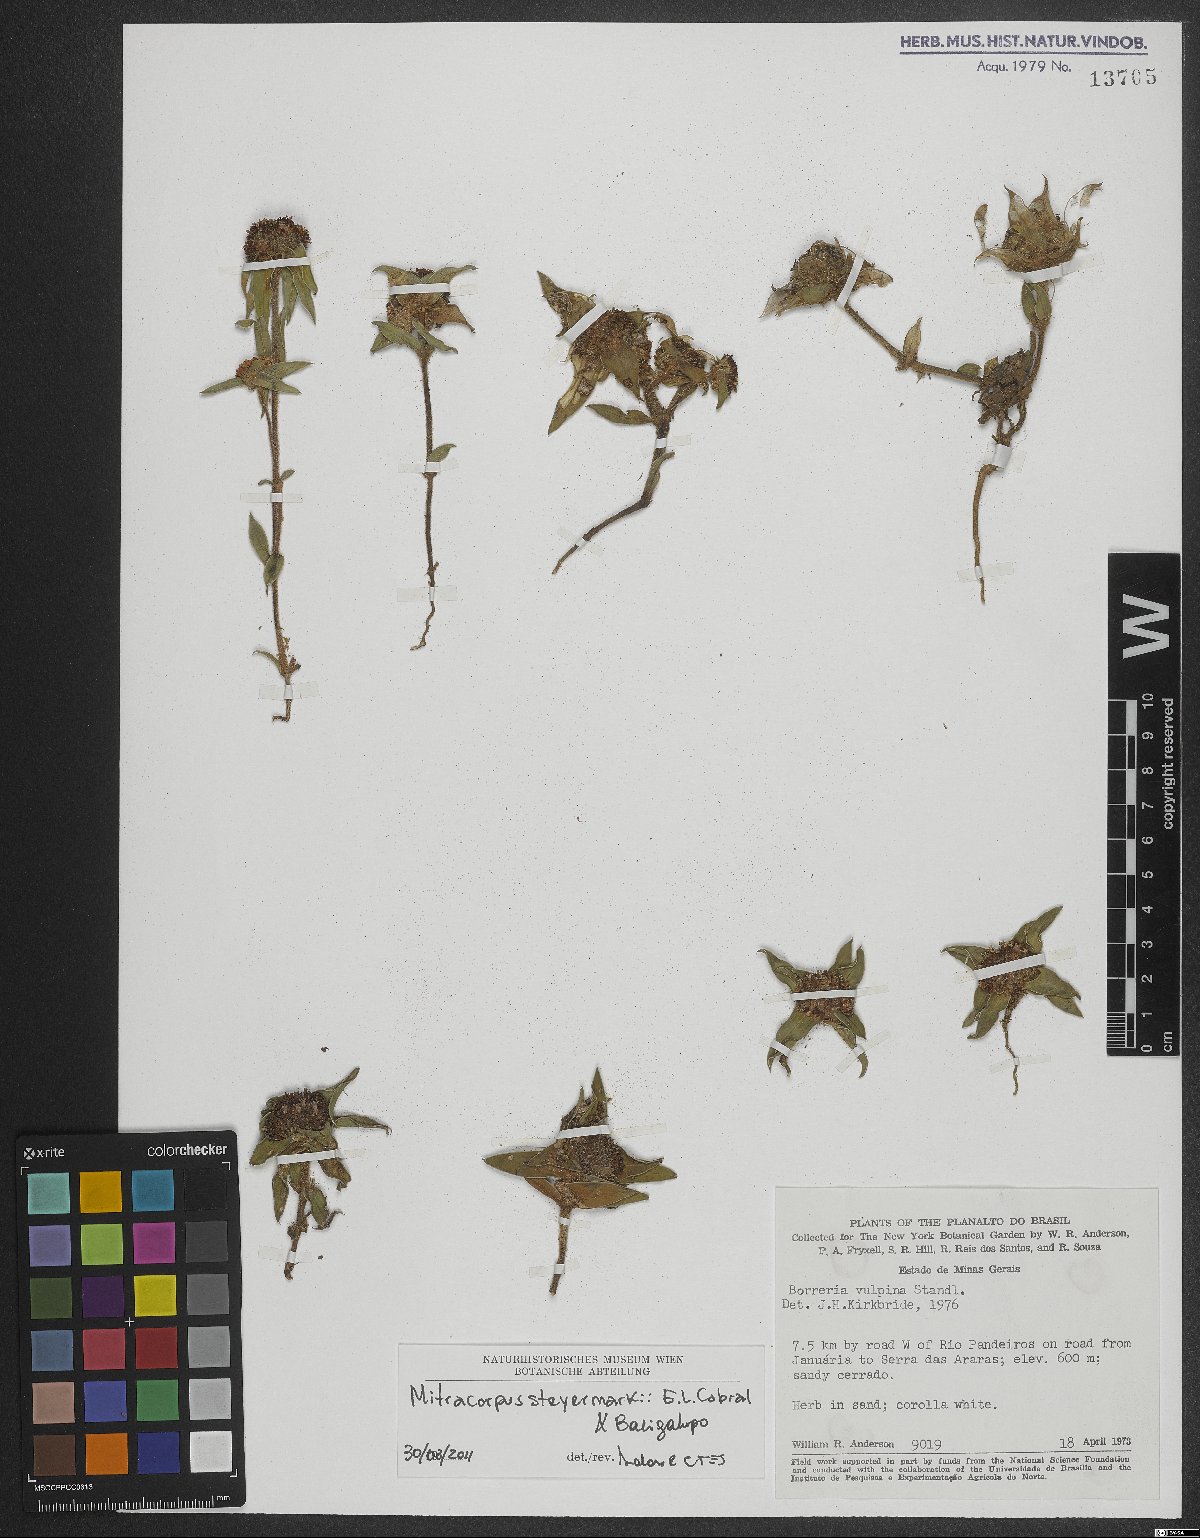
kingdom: Plantae
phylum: Tracheophyta
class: Magnoliopsida
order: Gentianales
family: Rubiaceae
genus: Mitracarpus
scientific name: Mitracarpus steyermarkii
